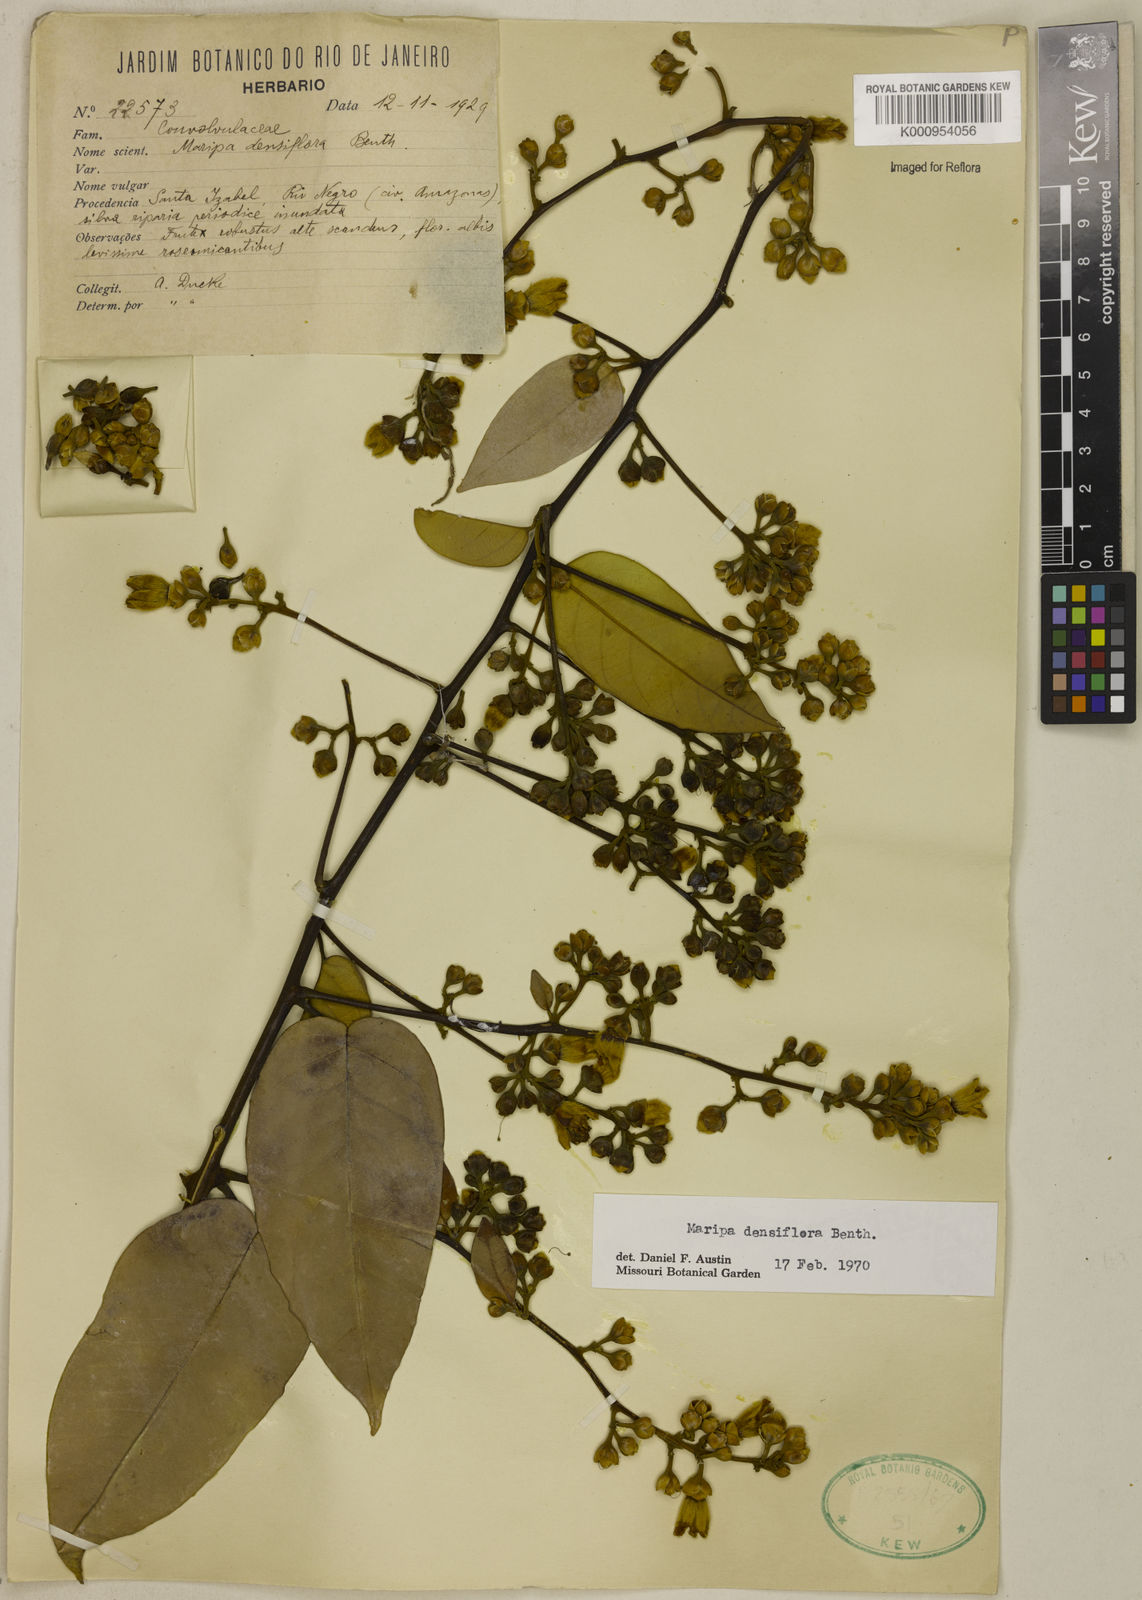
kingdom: Plantae
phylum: Tracheophyta
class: Magnoliopsida
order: Solanales
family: Convolvulaceae
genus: Maripa
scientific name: Maripa densiflora
